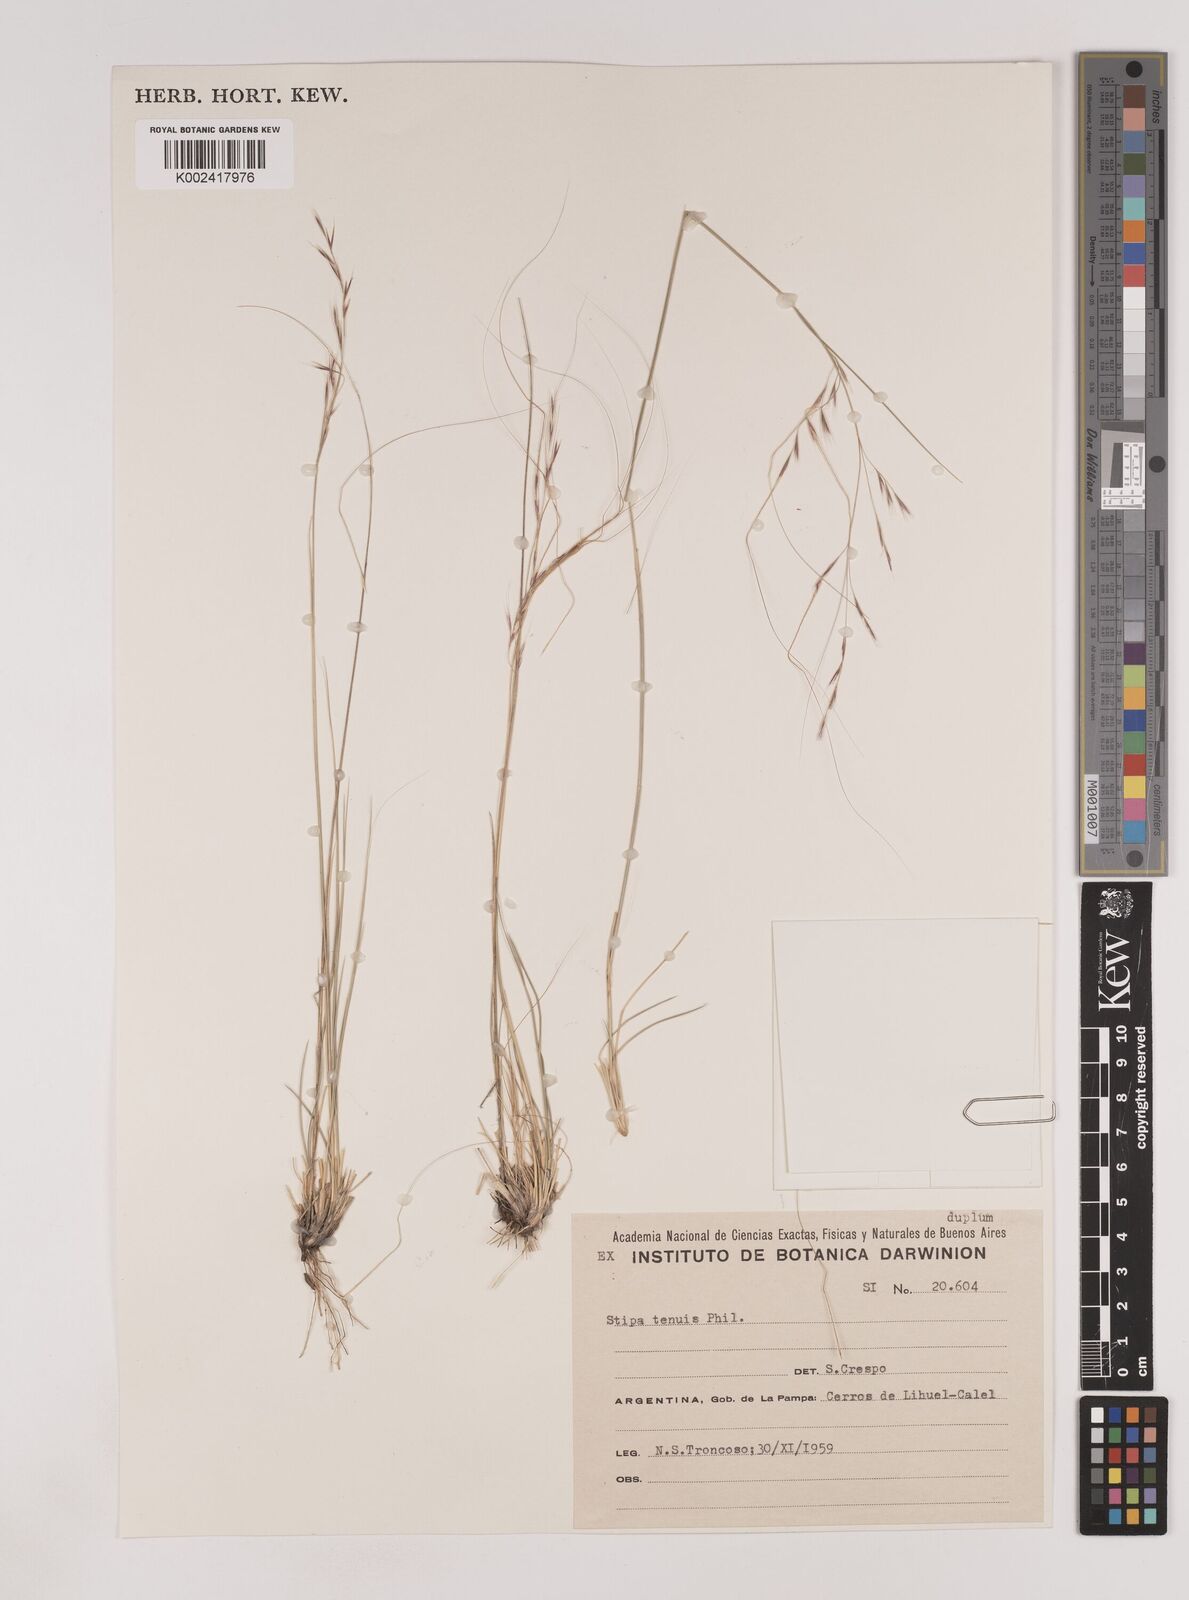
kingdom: Plantae
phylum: Tracheophyta
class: Liliopsida
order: Poales
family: Poaceae
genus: Nassella
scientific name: Nassella tenuis
